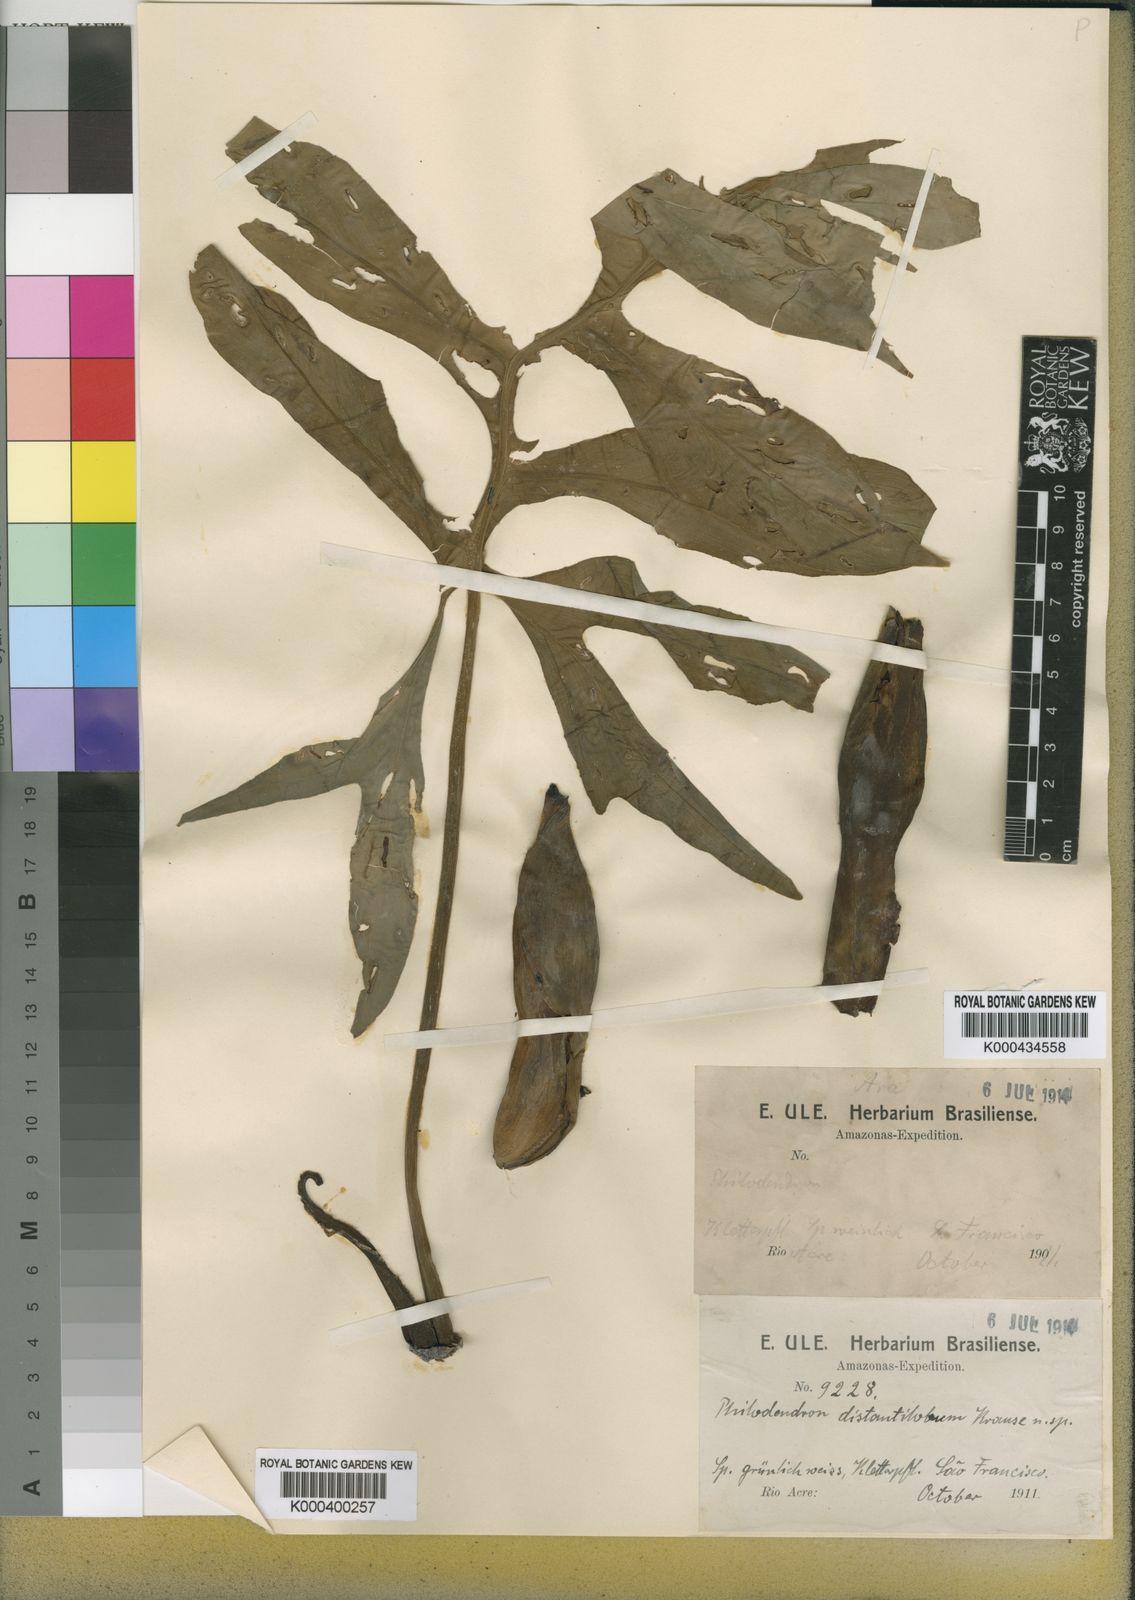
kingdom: Plantae
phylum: Tracheophyta
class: Liliopsida
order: Alismatales
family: Araceae
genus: Philodendron
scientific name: Philodendron distantilobum
